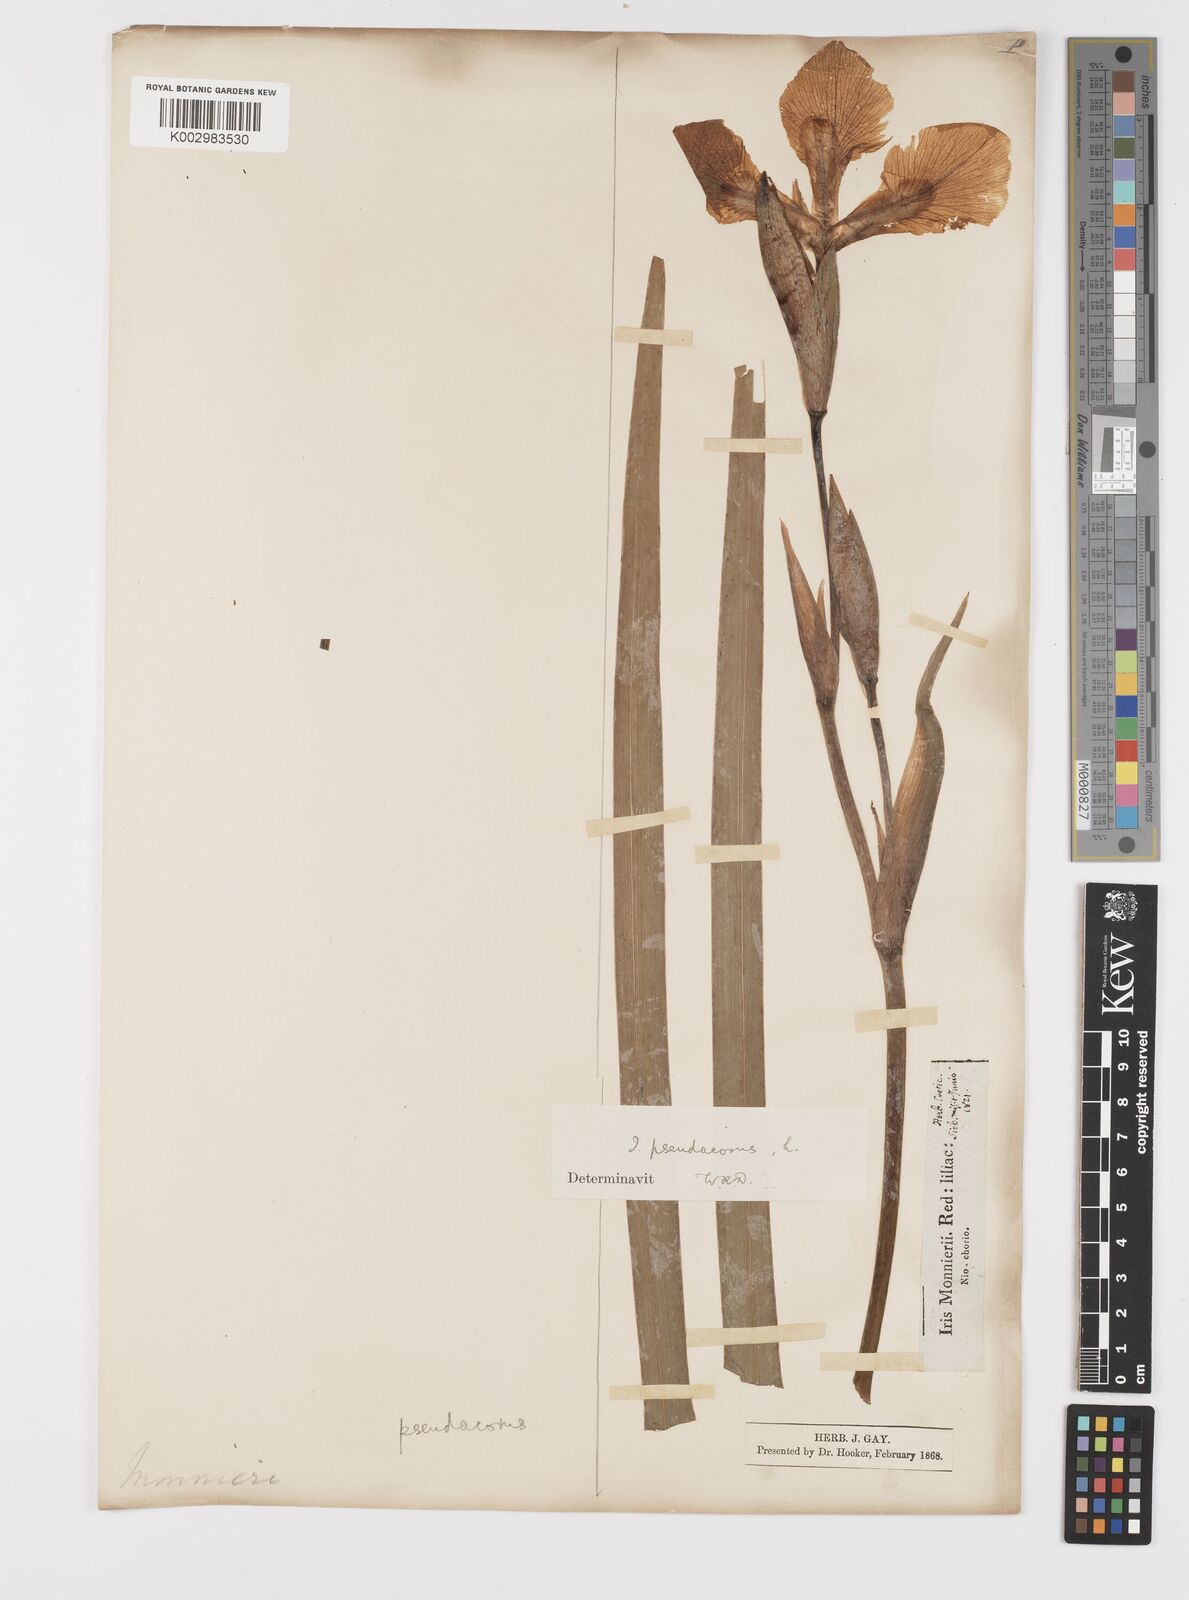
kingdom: Plantae
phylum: Tracheophyta
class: Liliopsida
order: Asparagales
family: Iridaceae
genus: Iris
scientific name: Iris pseudacorus
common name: Yellow flag
